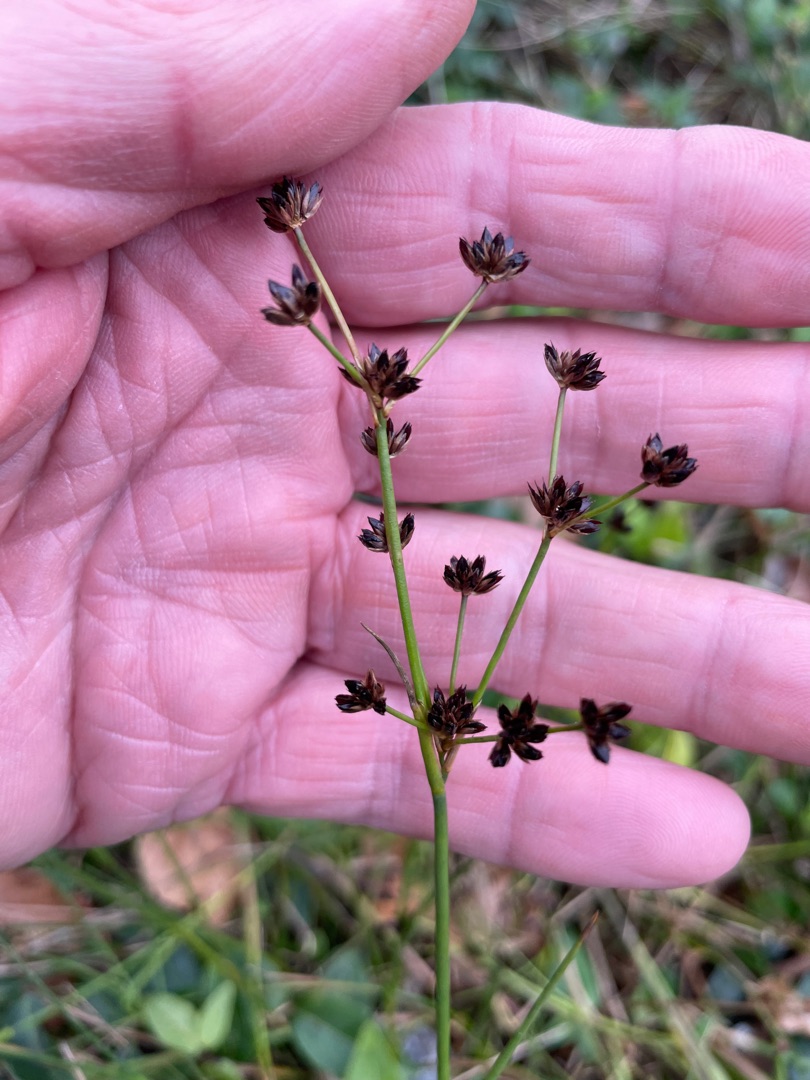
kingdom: Plantae
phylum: Tracheophyta
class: Liliopsida
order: Poales
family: Juncaceae
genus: Juncus
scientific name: Juncus articulatus
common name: Glanskapslet siv
